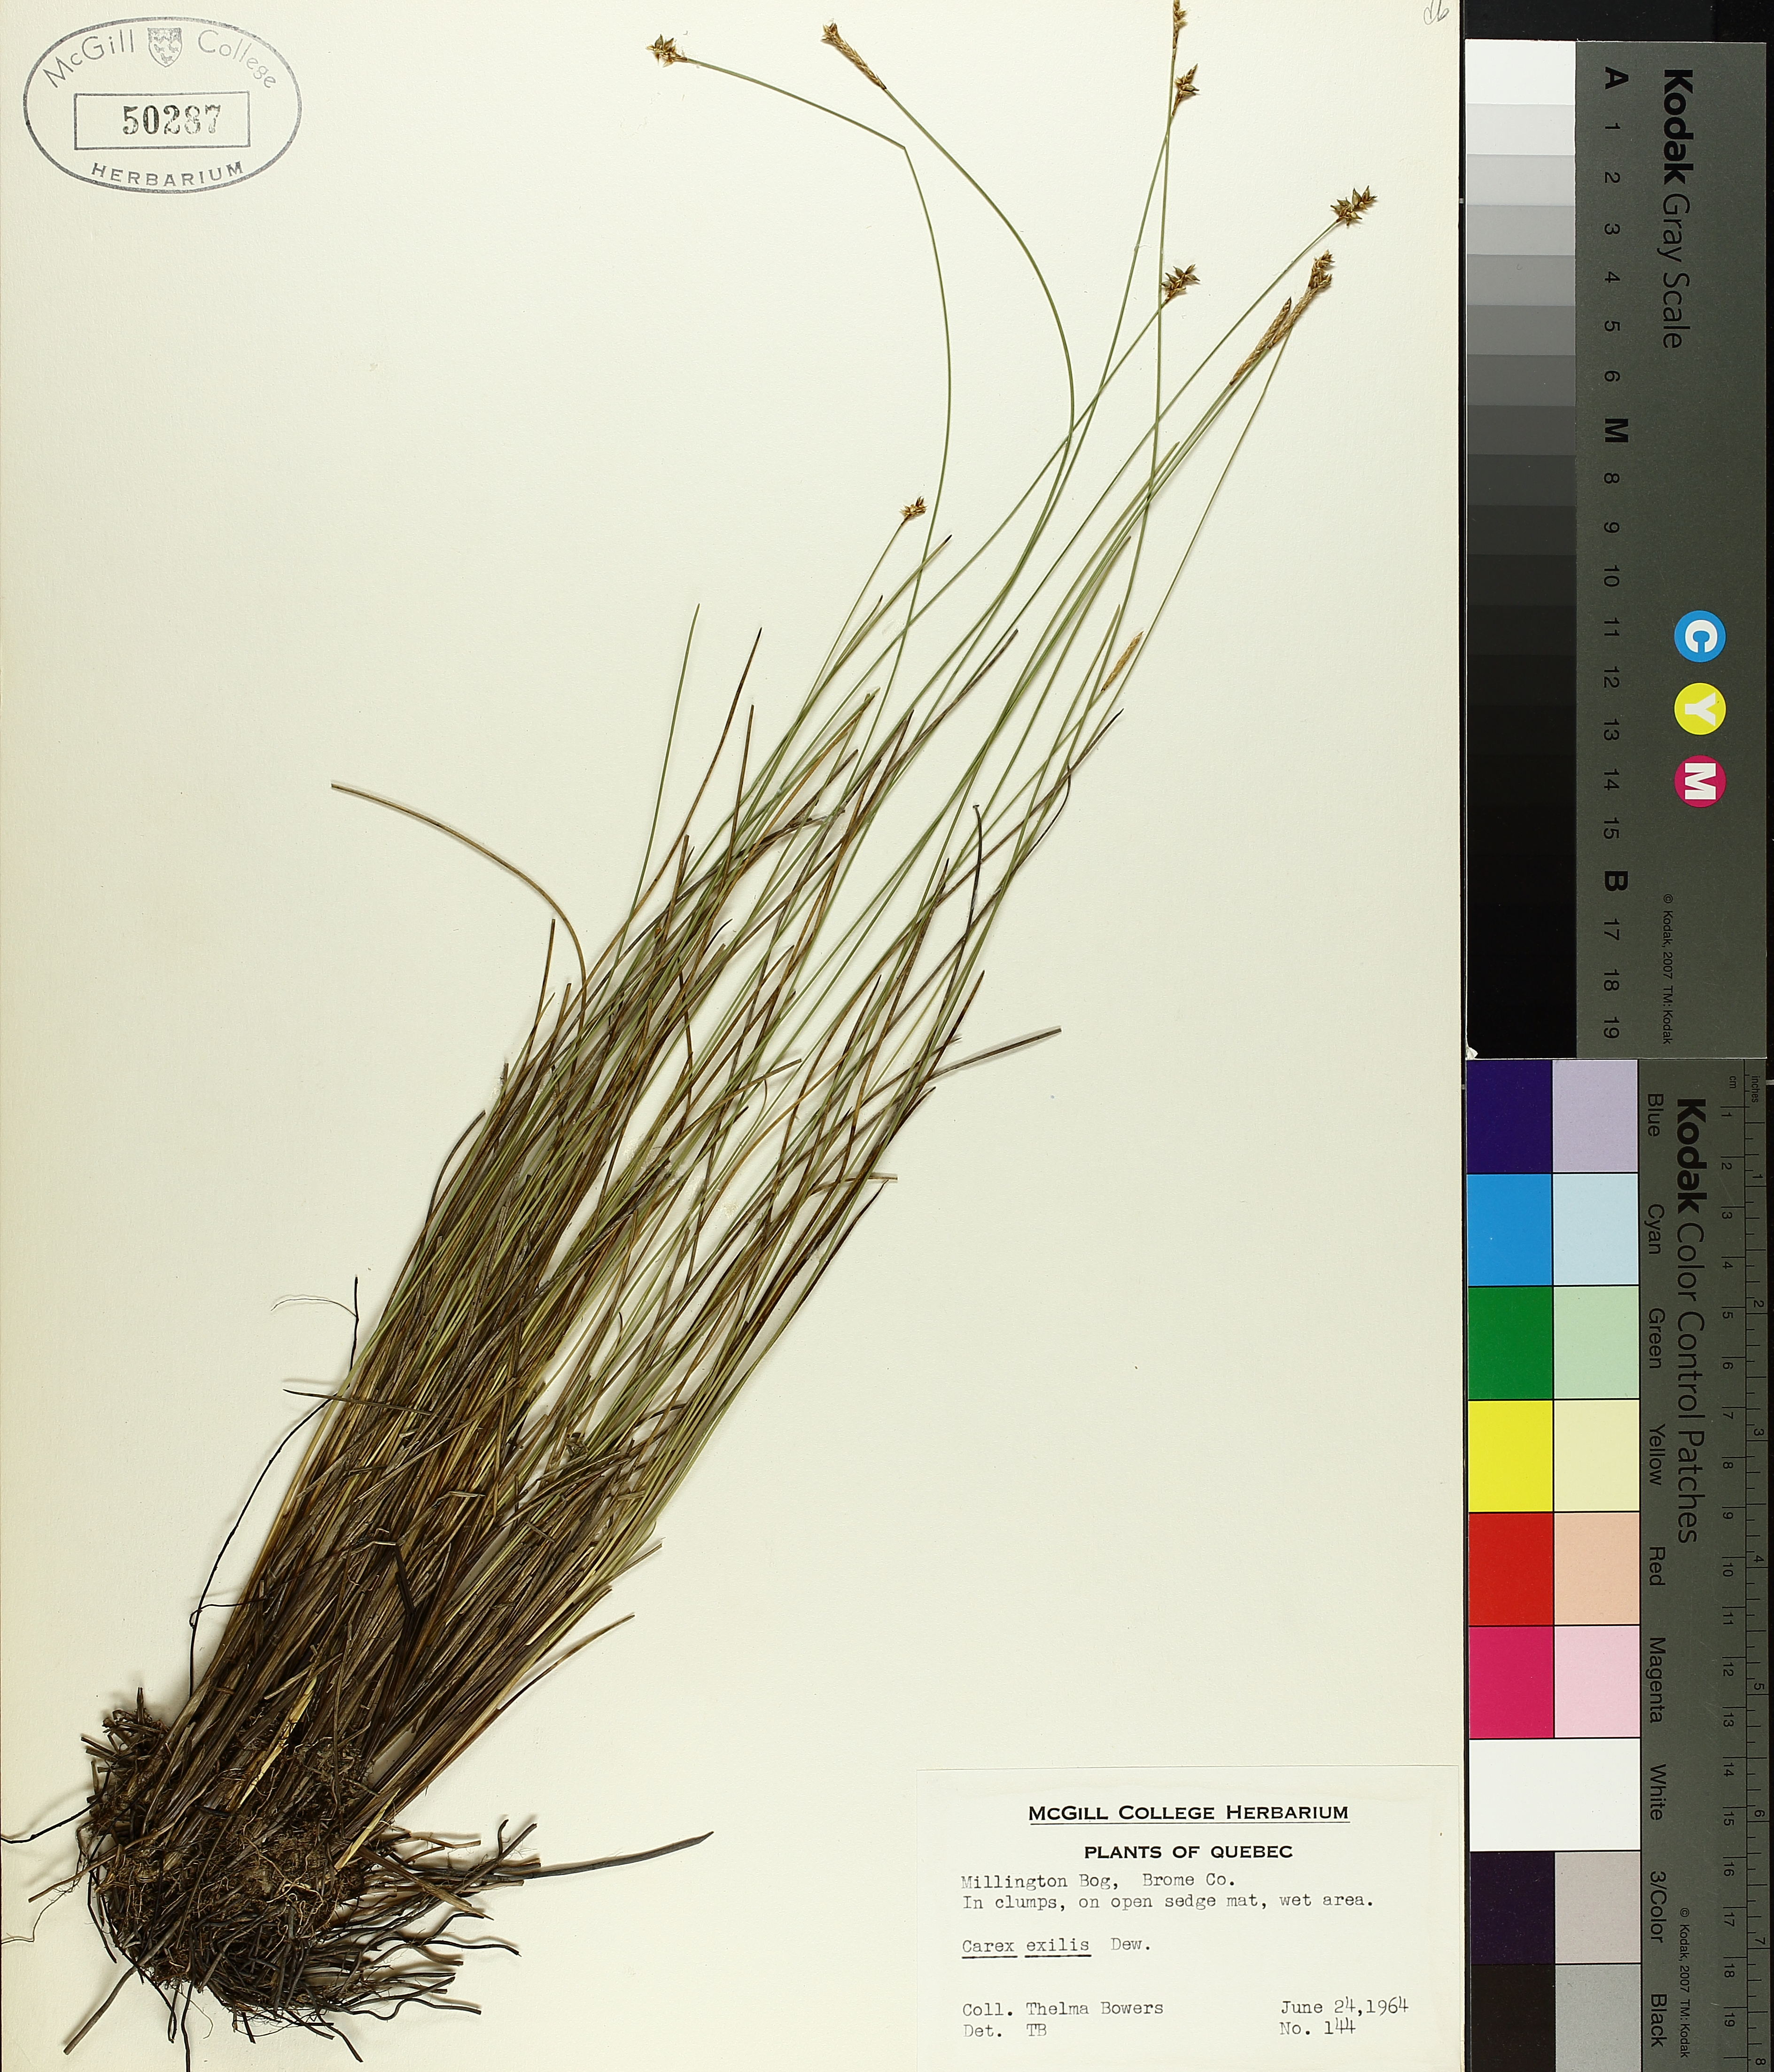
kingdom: Plantae
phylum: Tracheophyta
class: Liliopsida
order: Poales
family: Cyperaceae
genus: Carex
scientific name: Carex exilis
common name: Coastal sedge
